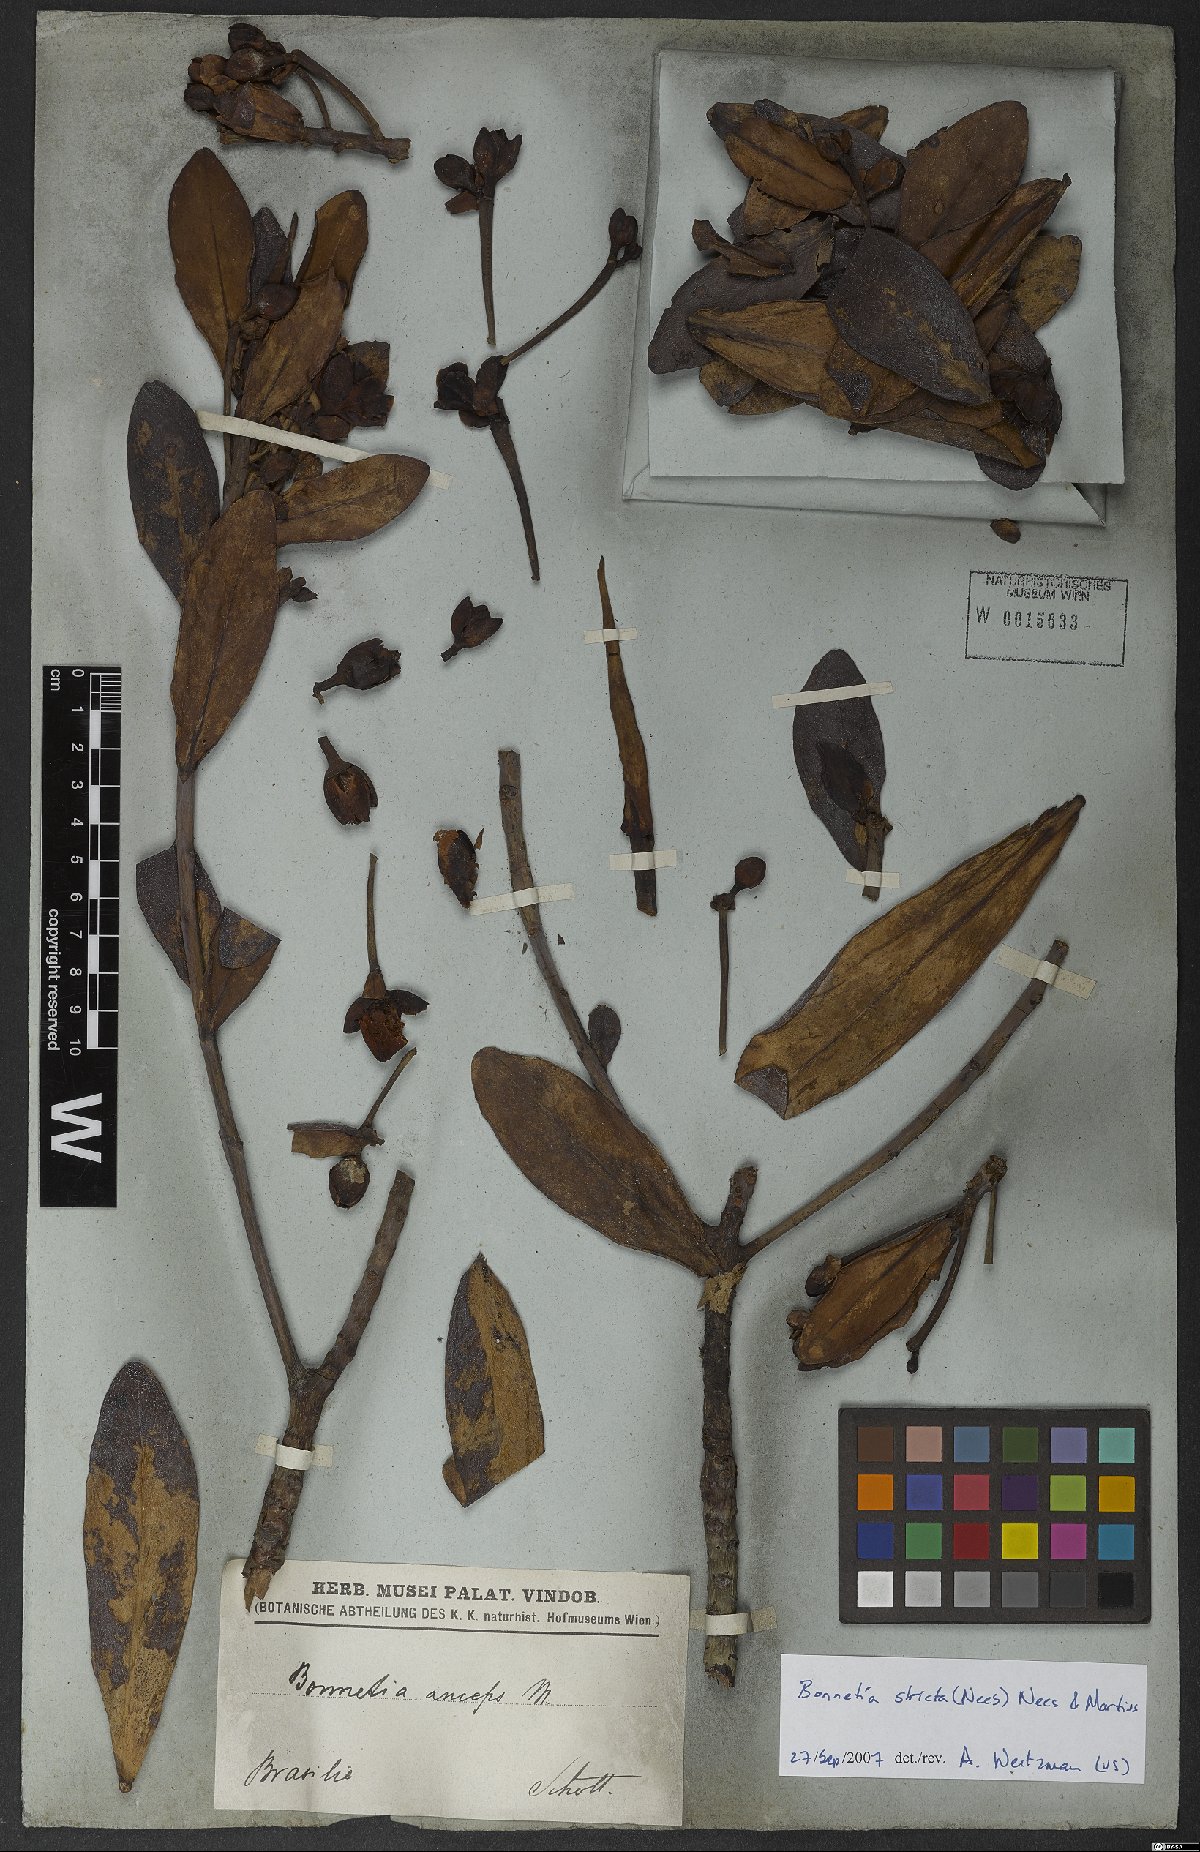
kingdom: Plantae
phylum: Tracheophyta
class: Magnoliopsida
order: Malpighiales
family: Bonnetiaceae
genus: Bonnetia
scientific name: Bonnetia stricta
